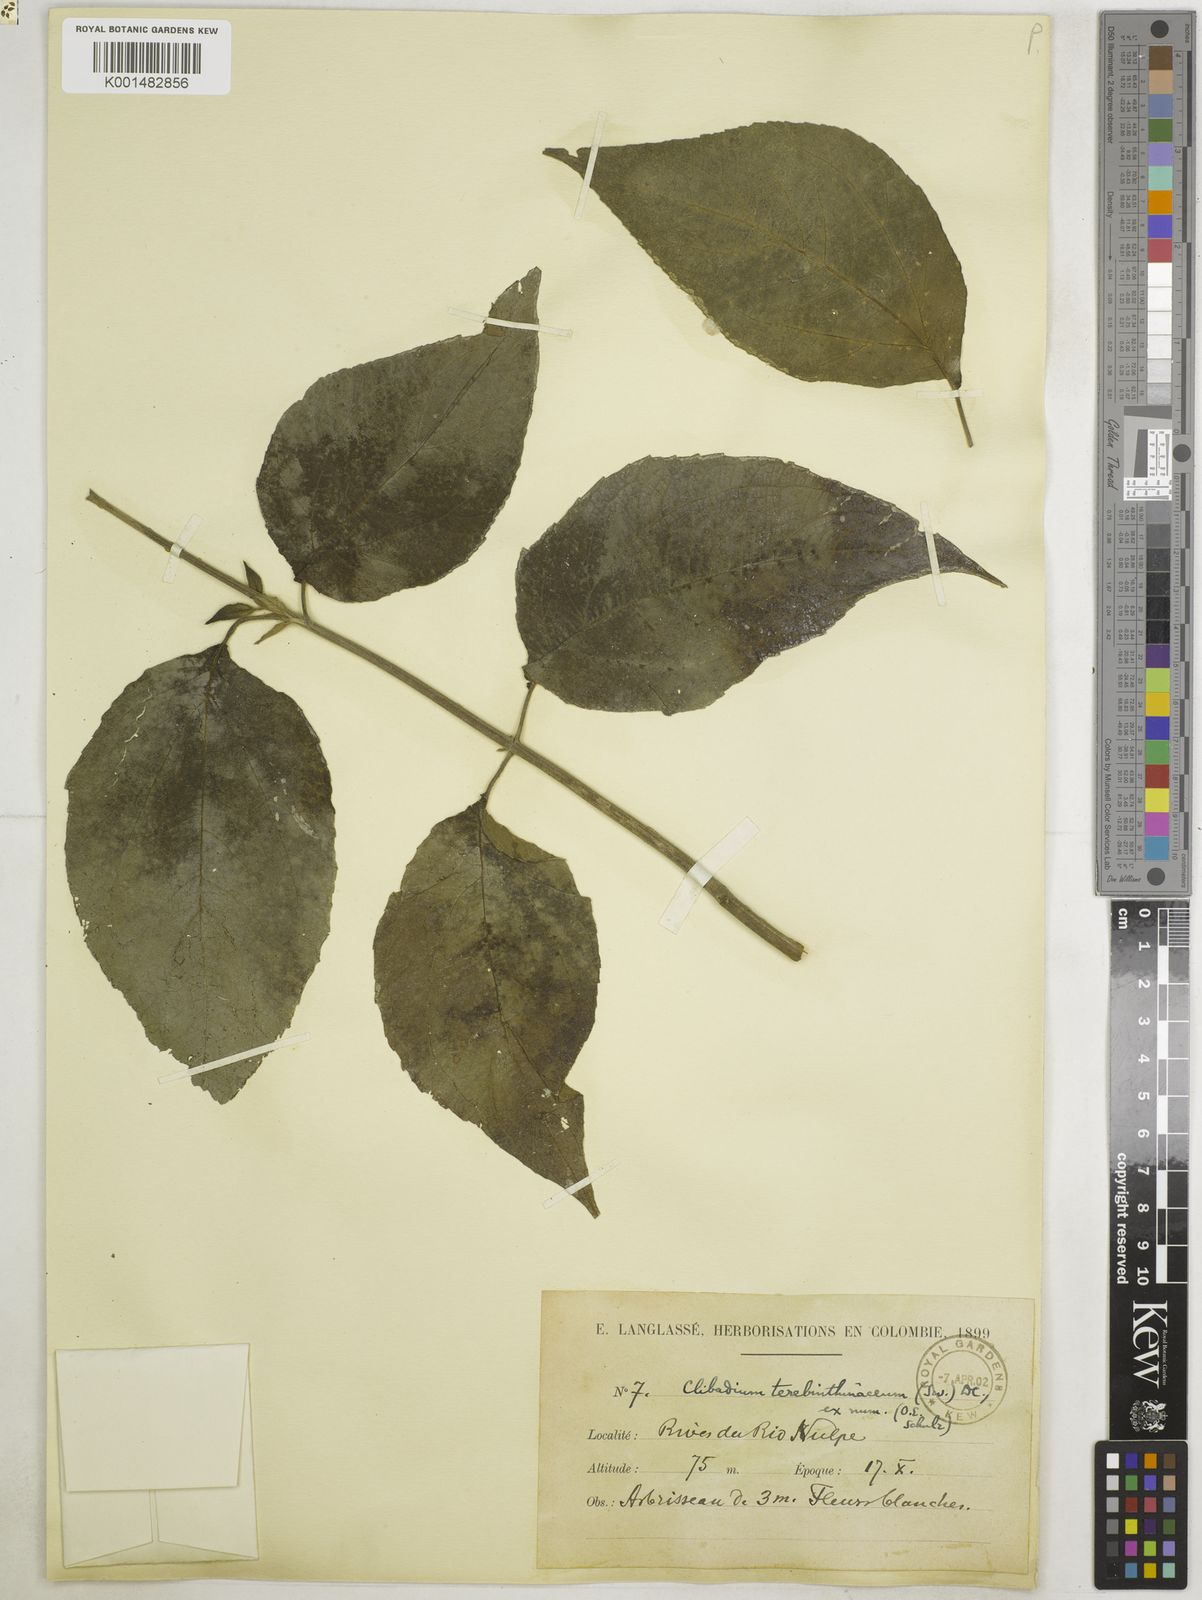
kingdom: Plantae
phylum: Tracheophyta
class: Magnoliopsida
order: Asterales
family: Asteraceae
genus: Clibadium
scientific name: Clibadium terebinthinaceum
